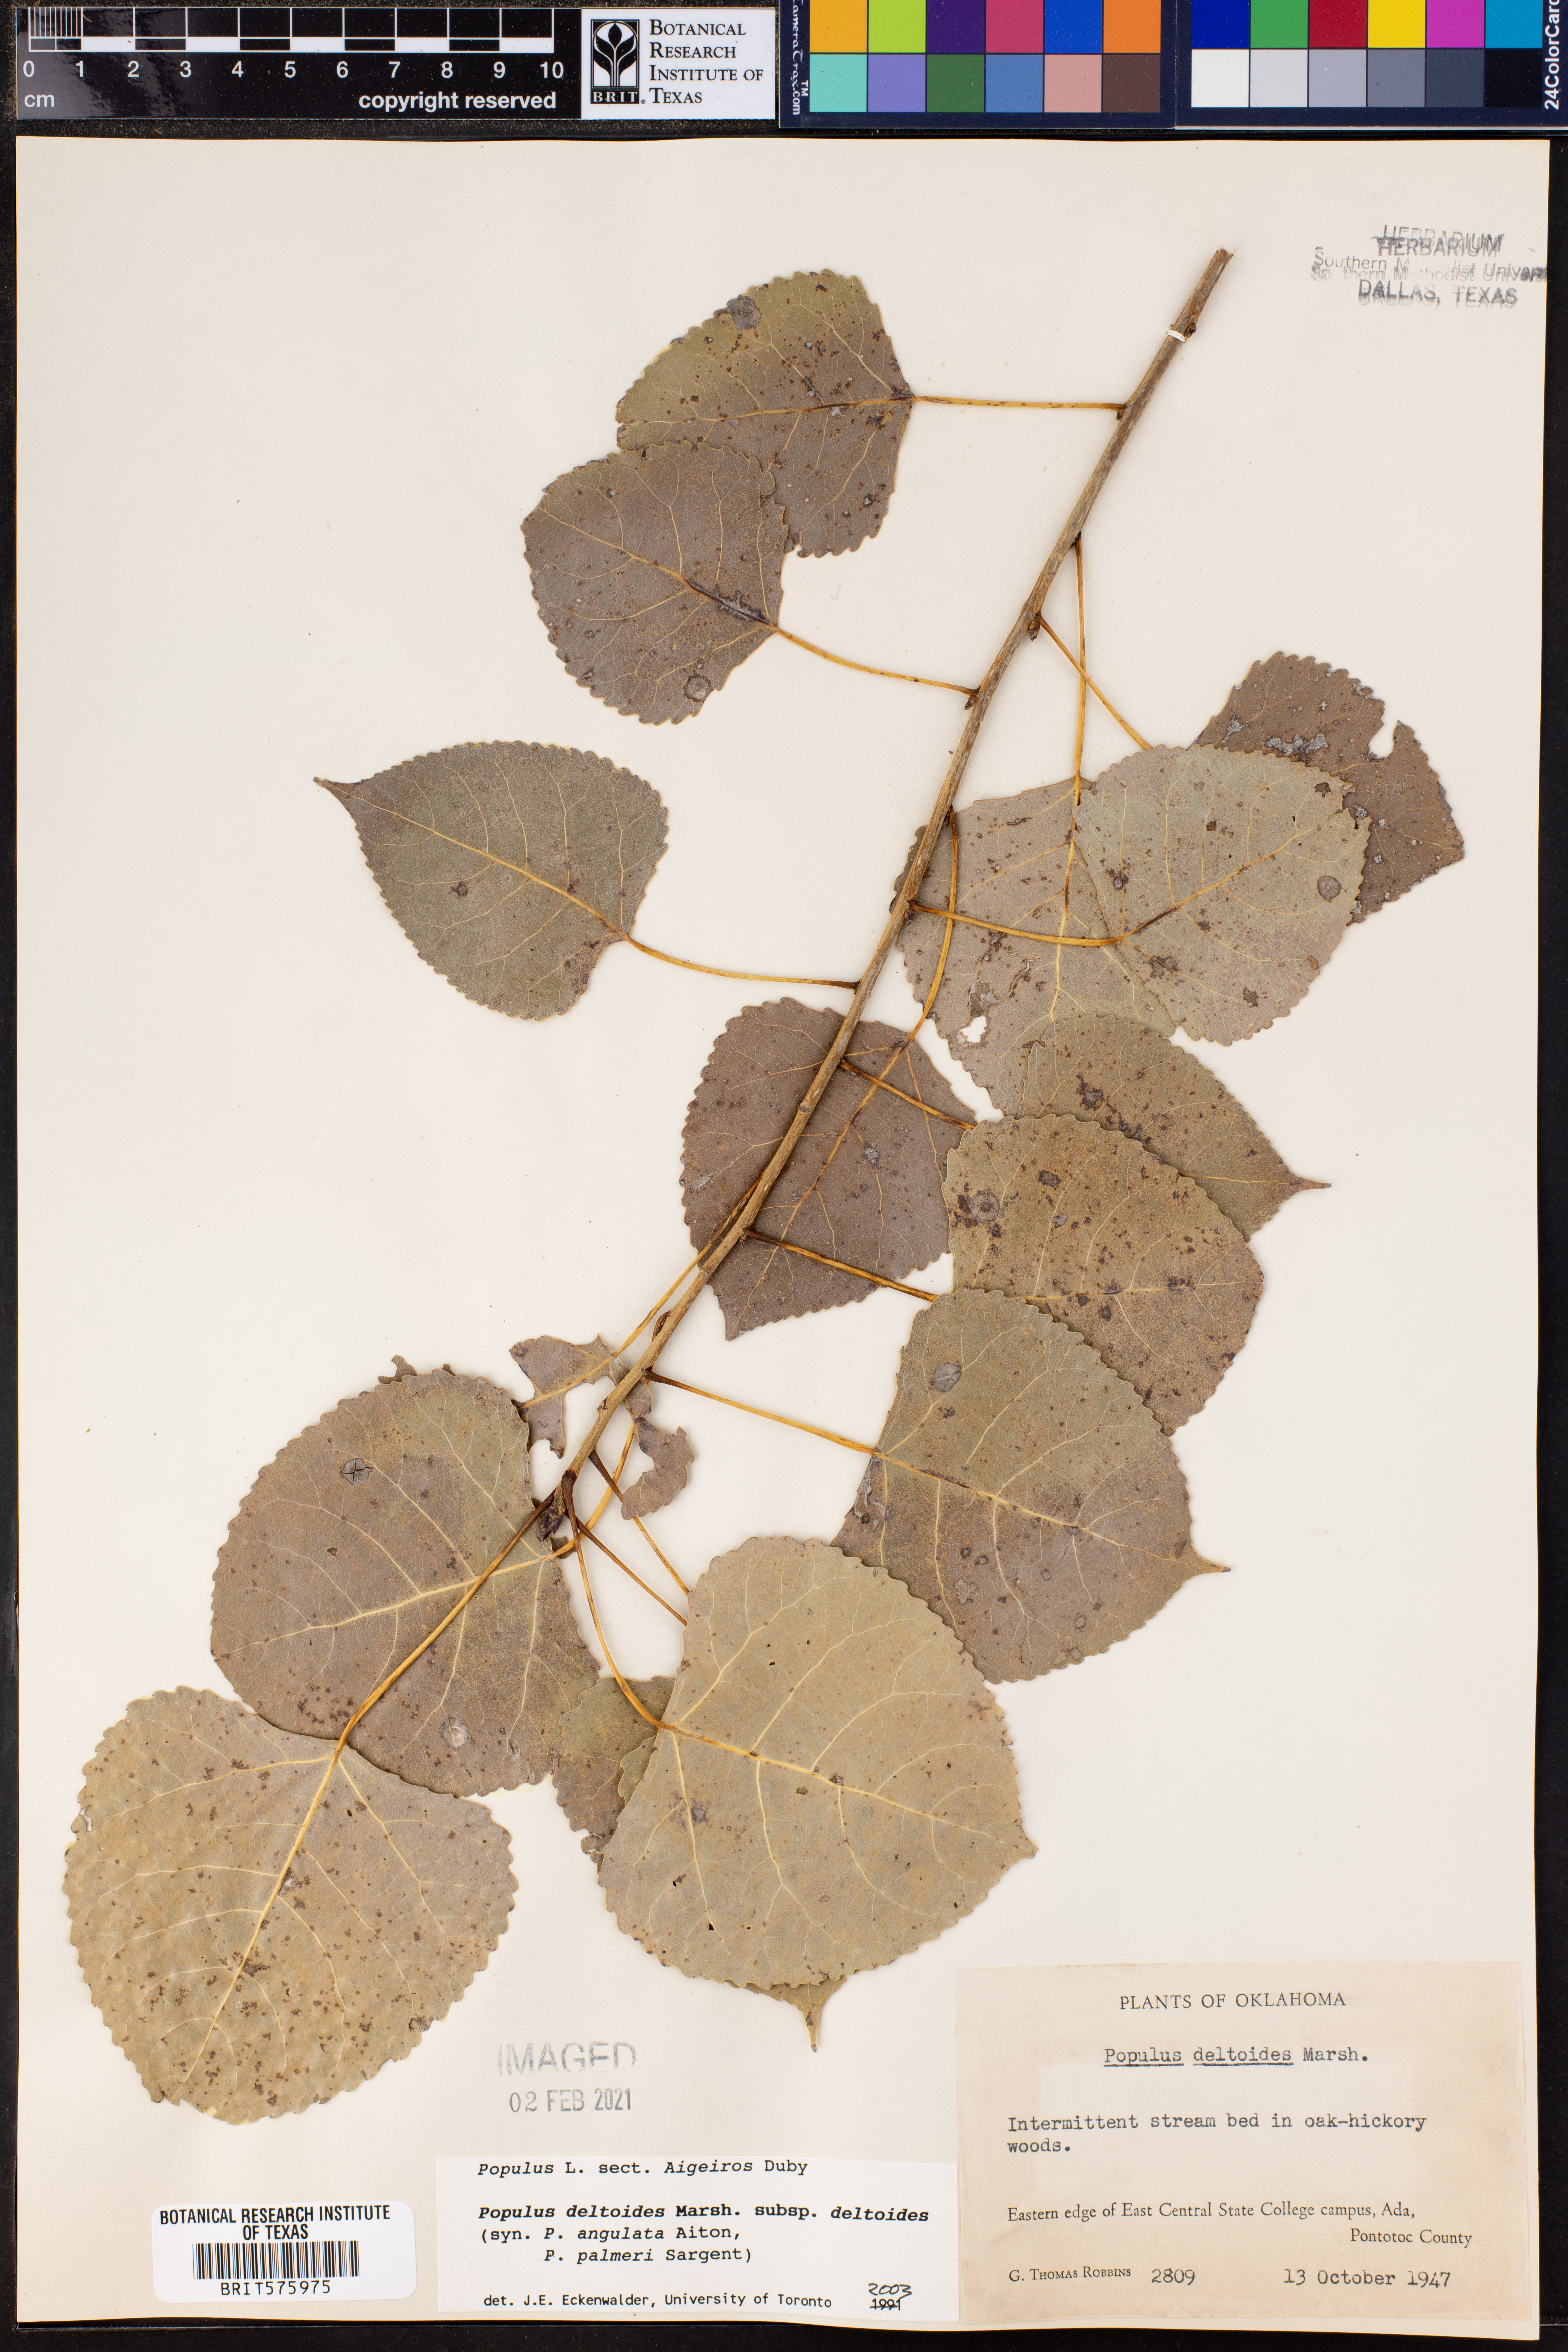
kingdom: Plantae
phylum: Tracheophyta
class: Magnoliopsida
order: Malpighiales
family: Salicaceae
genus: Populus
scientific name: Populus deltoides
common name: Eastern cottonwood
